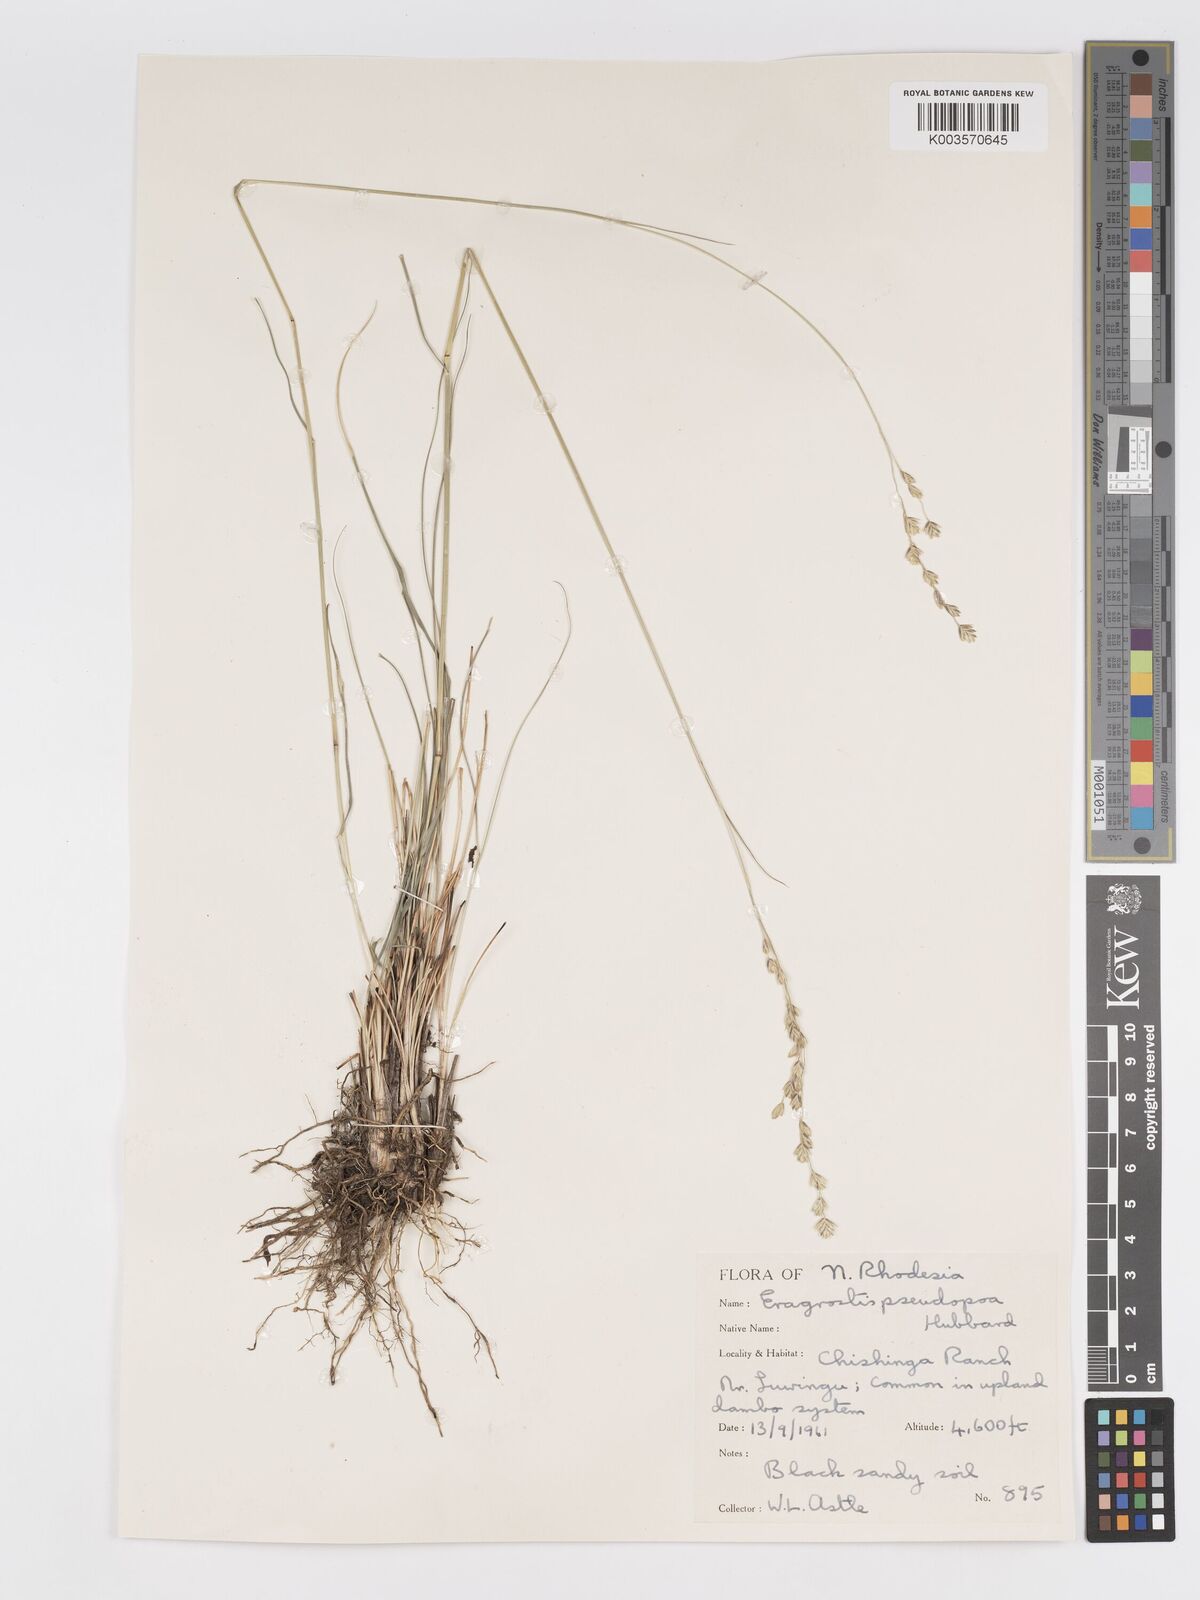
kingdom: Plantae
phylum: Tracheophyta
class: Liliopsida
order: Poales
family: Poaceae
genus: Eragrostis
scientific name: Eragrostis capensis
